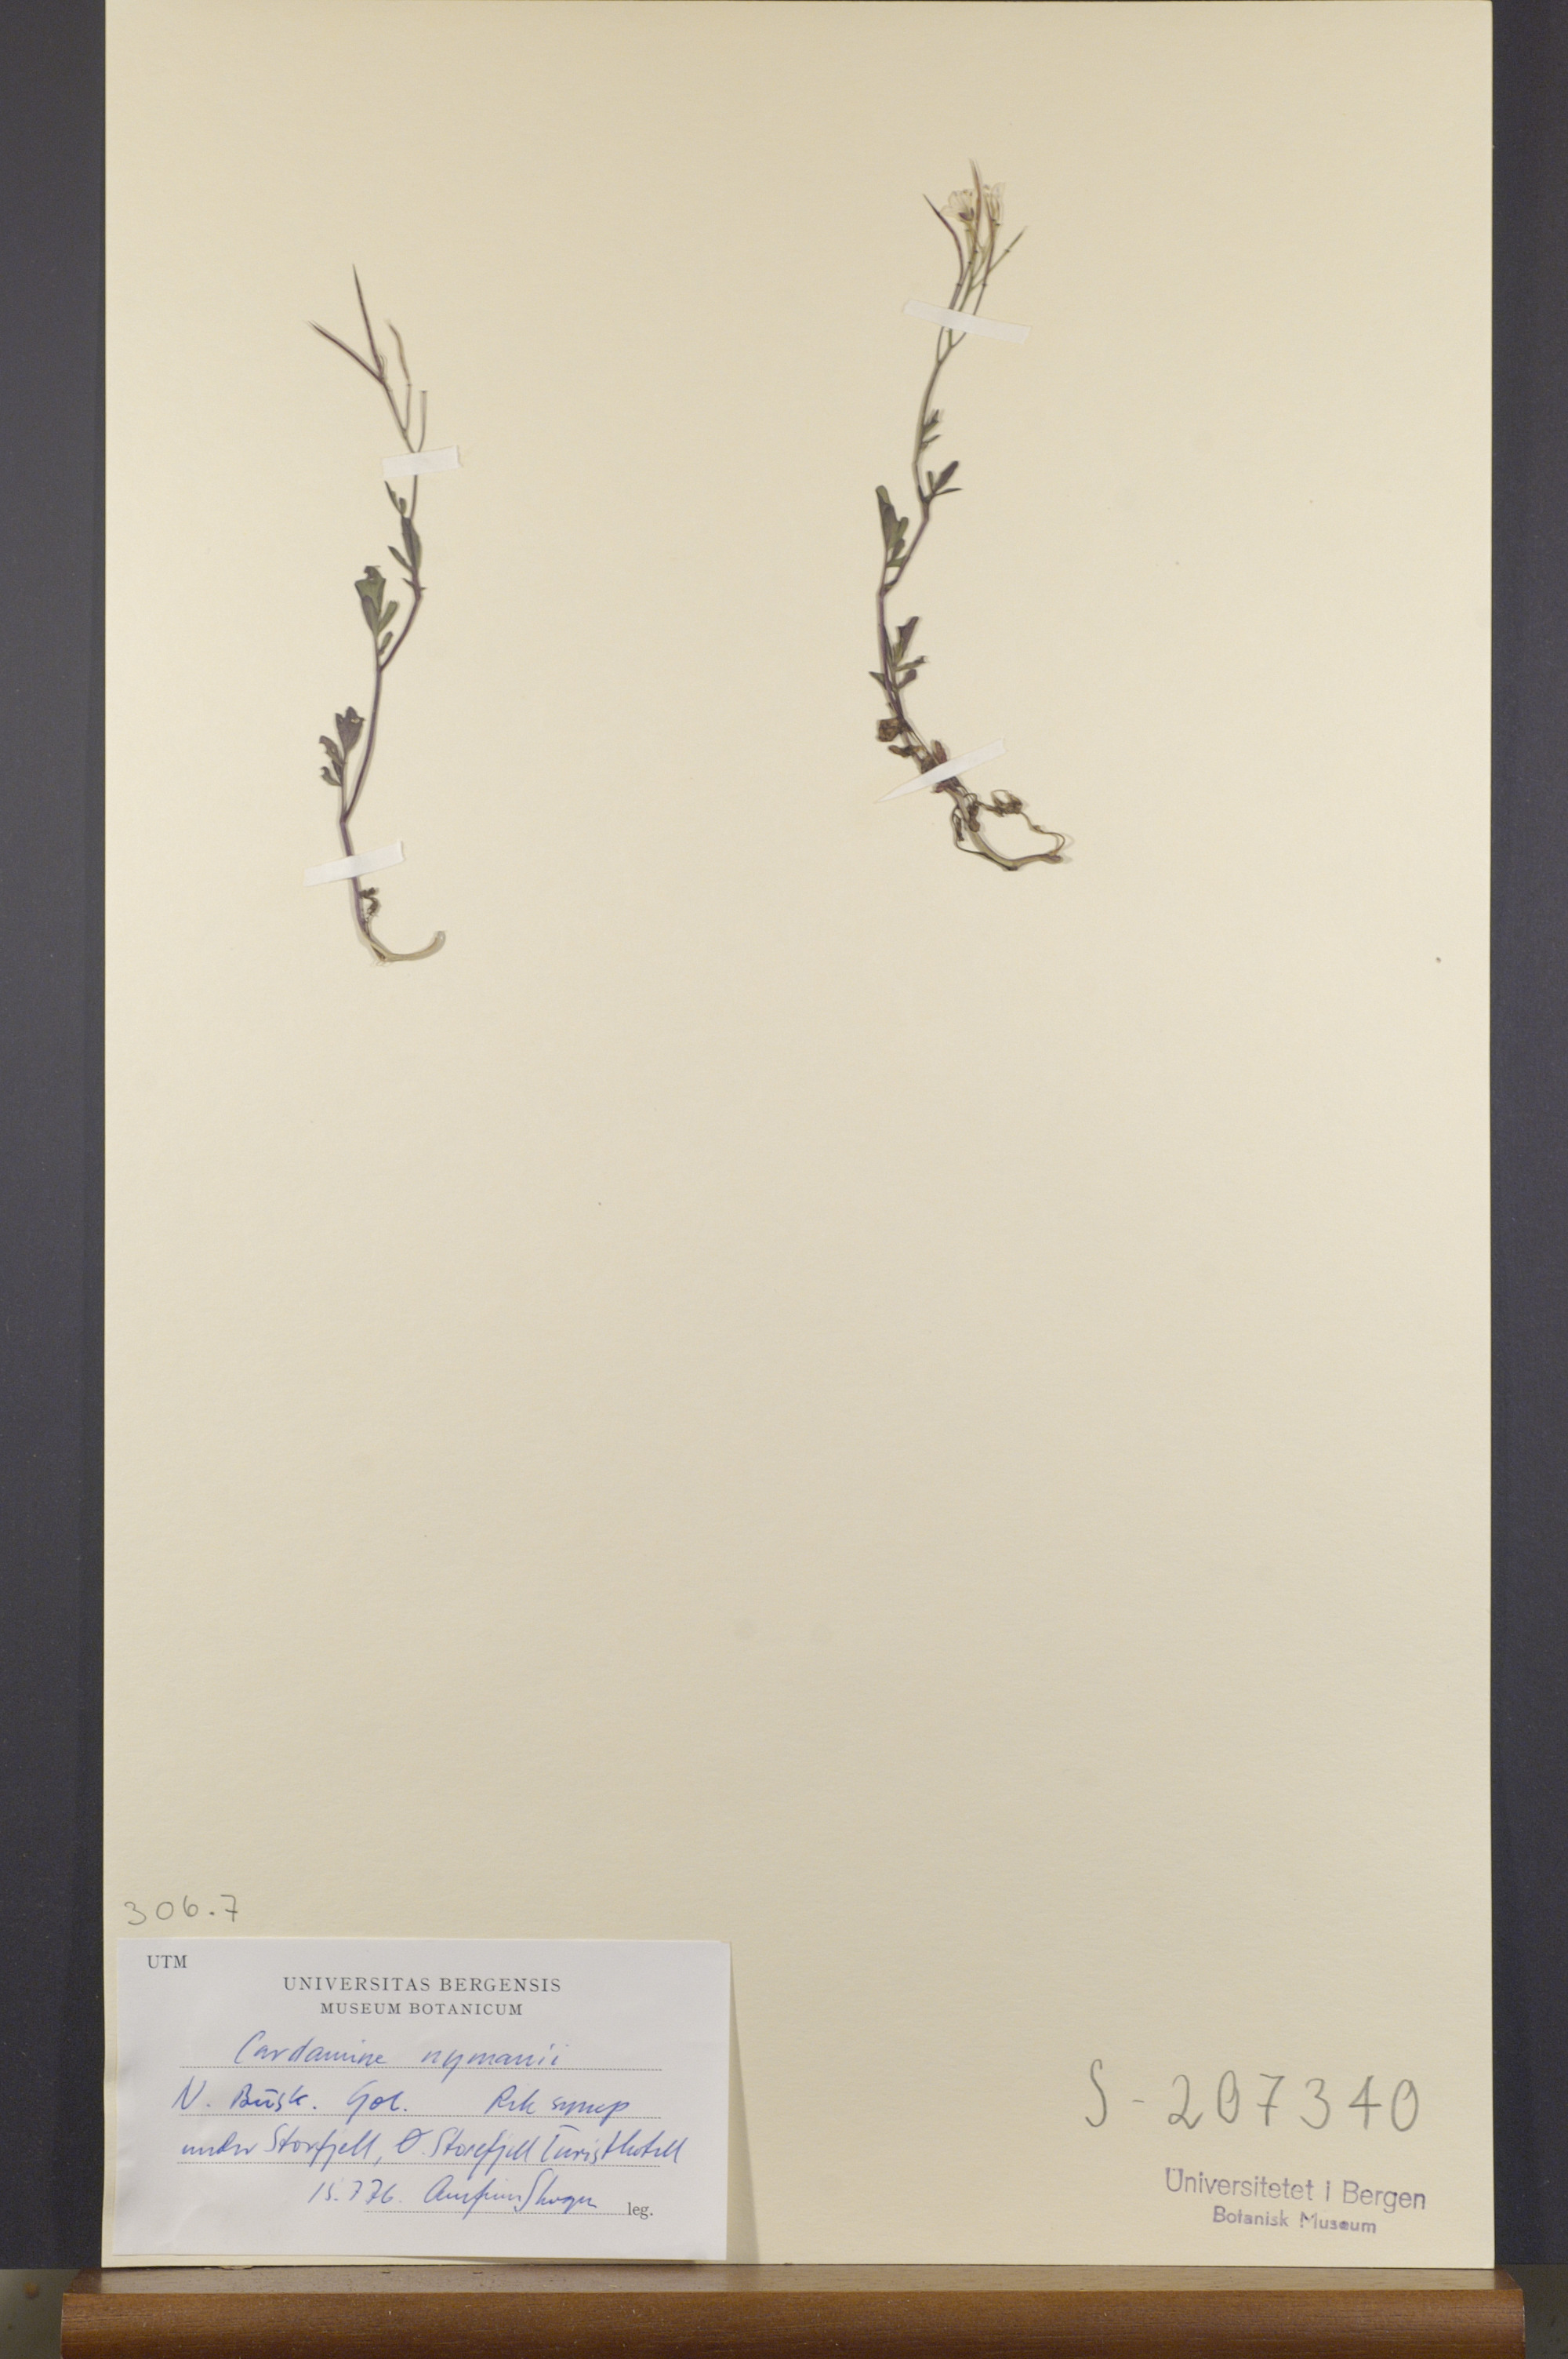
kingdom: Plantae
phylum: Tracheophyta
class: Magnoliopsida
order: Brassicales
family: Brassicaceae
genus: Cardamine
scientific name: Cardamine nymanii
